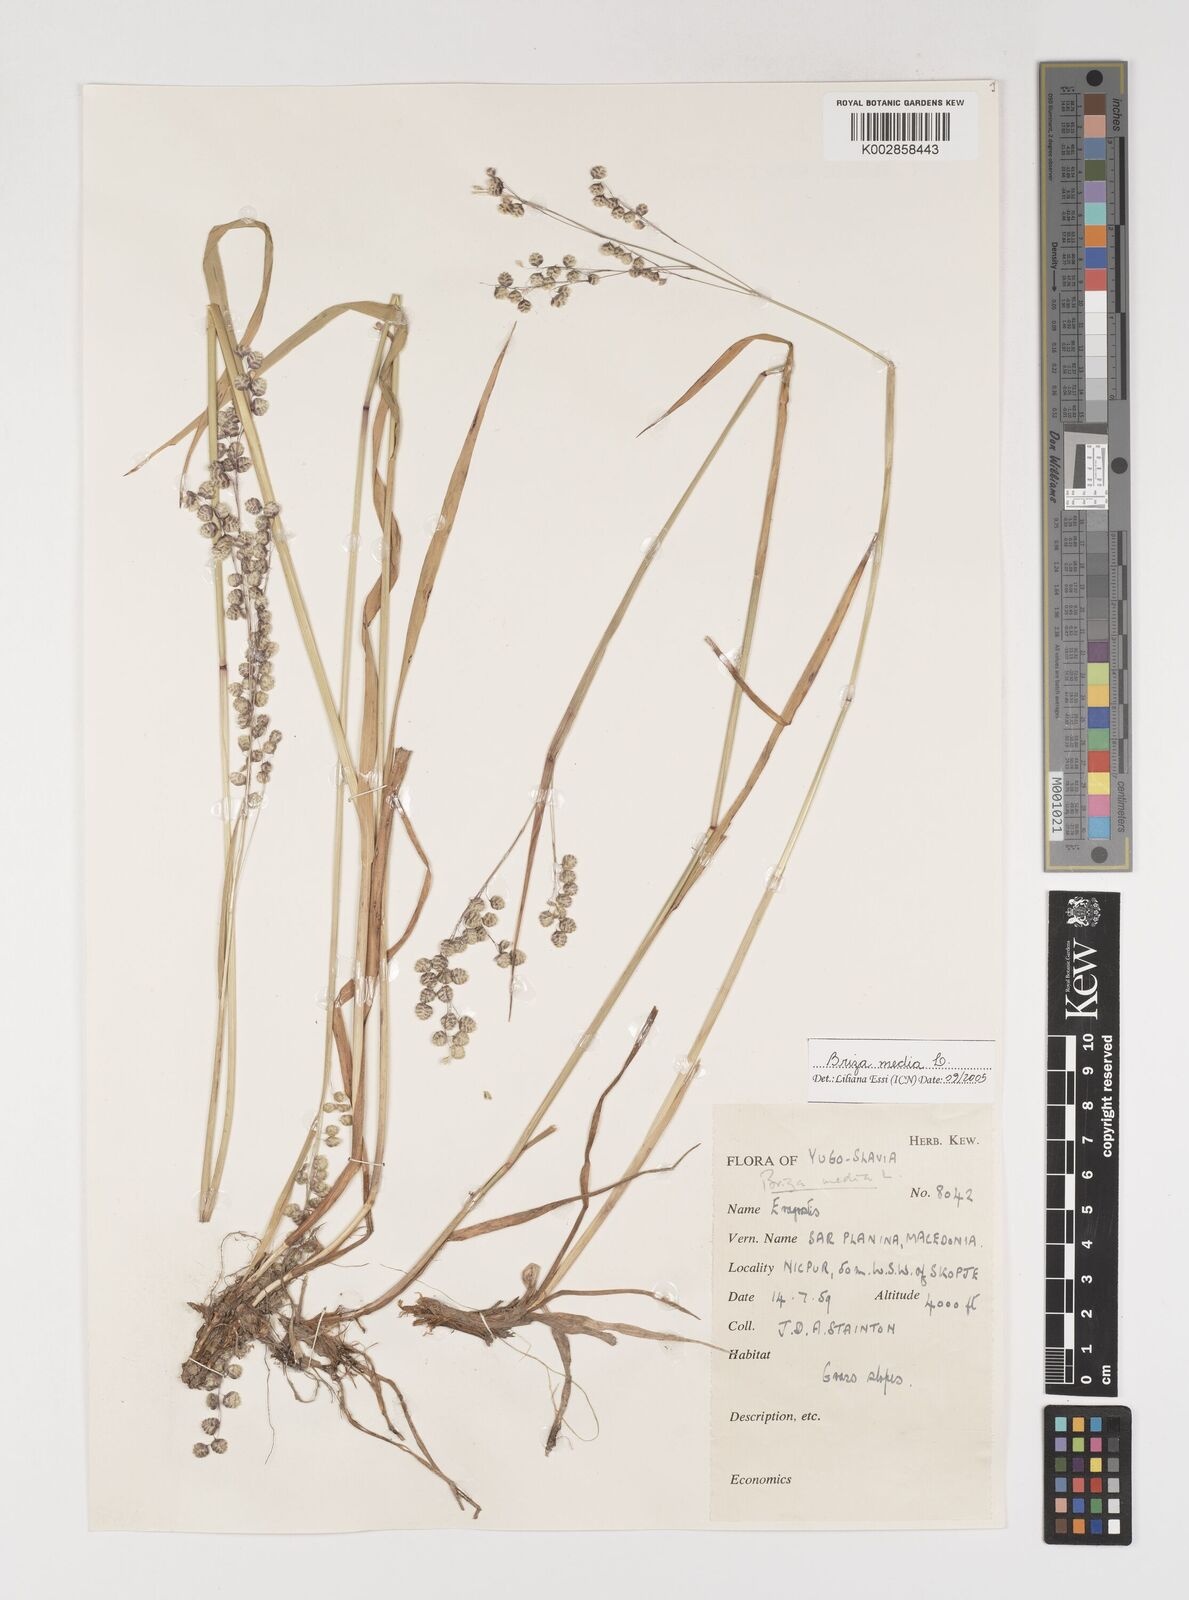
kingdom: Plantae
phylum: Tracheophyta
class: Liliopsida
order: Poales
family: Poaceae
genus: Briza
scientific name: Briza media
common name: Quaking grass
